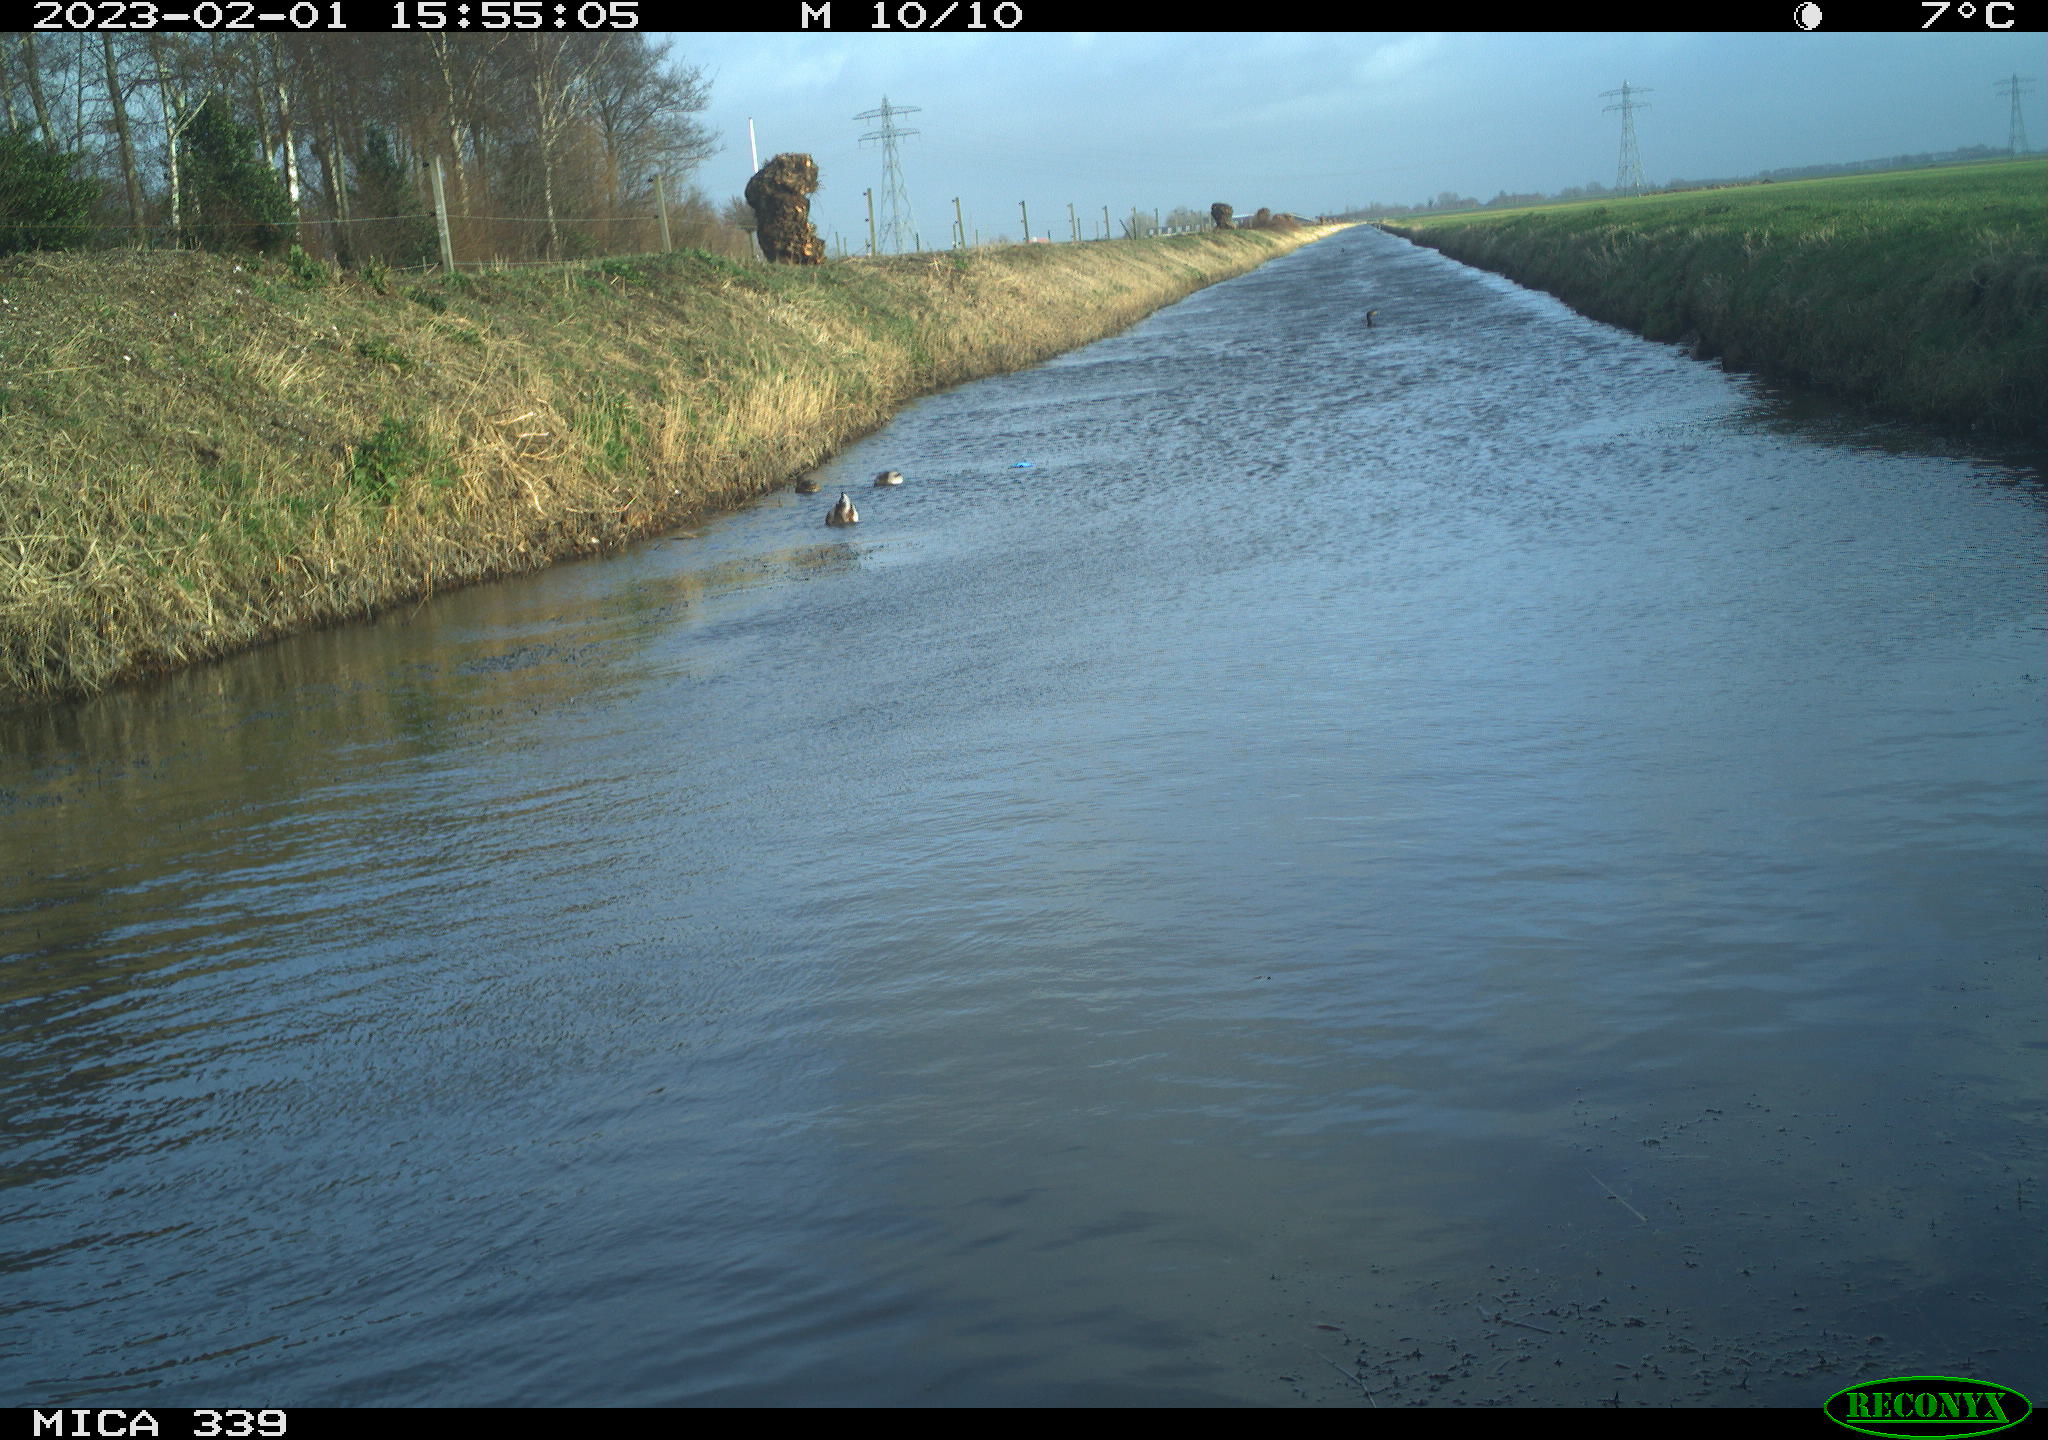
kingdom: Animalia
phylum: Chordata
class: Aves
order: Anseriformes
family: Anatidae
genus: Anas
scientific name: Anas
